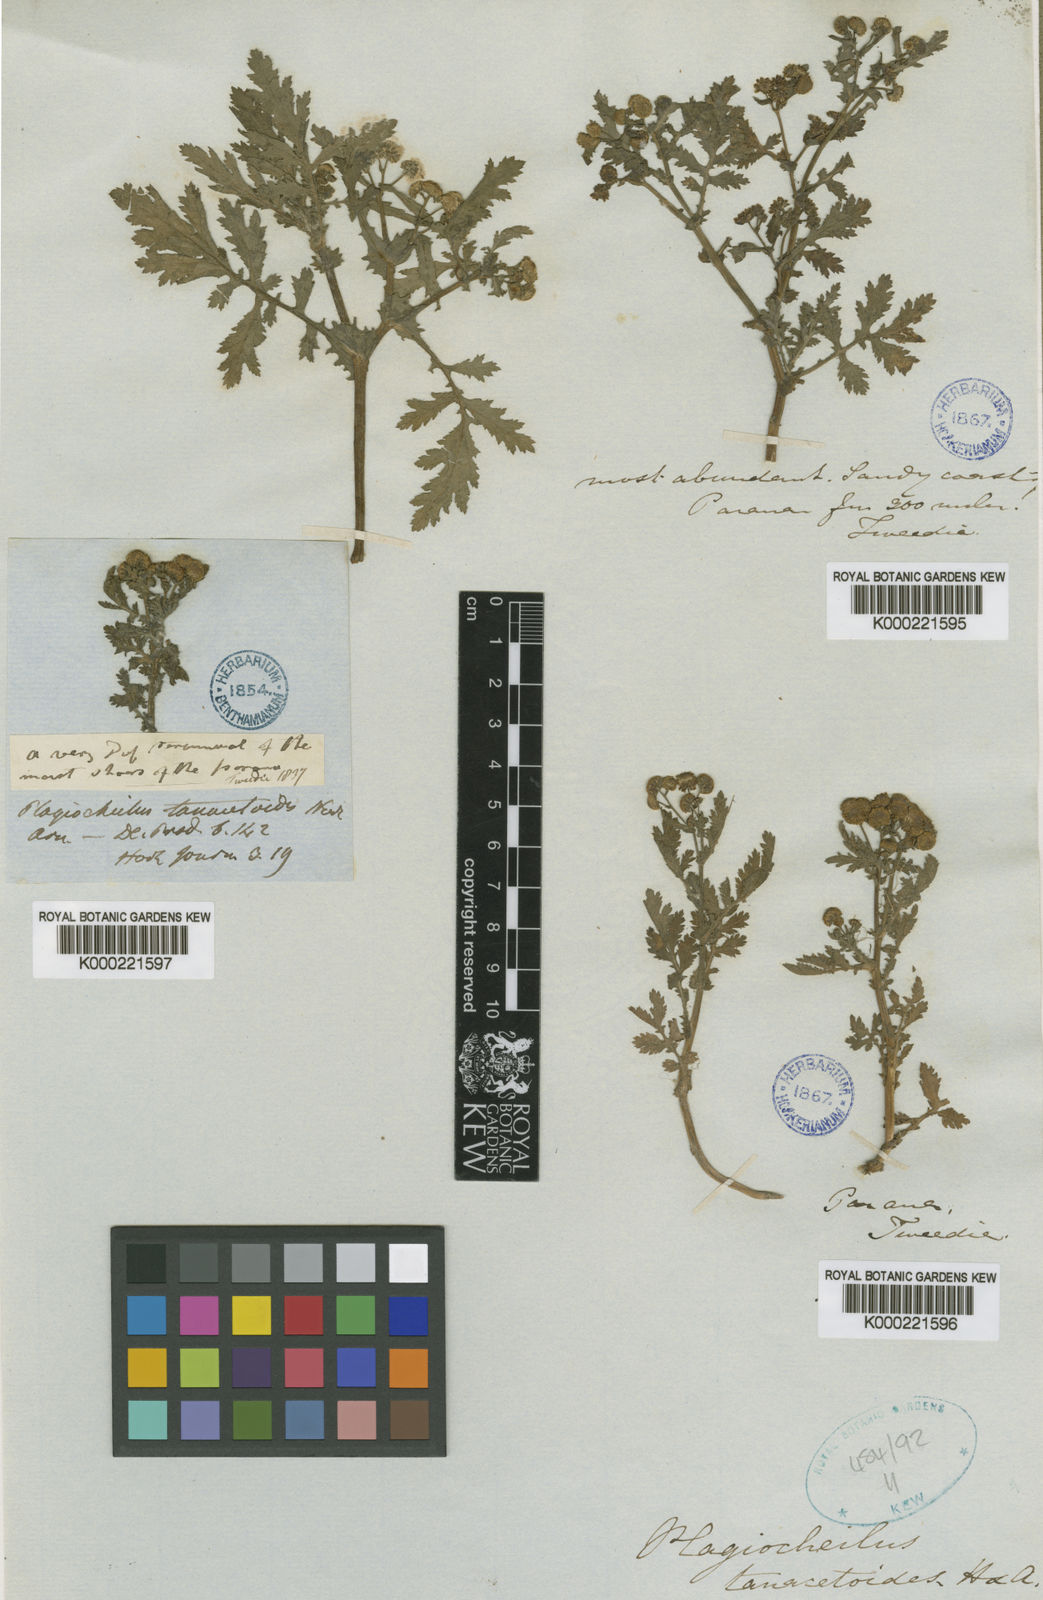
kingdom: Plantae
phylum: Tracheophyta
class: Magnoliopsida
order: Asterales
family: Asteraceae
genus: Plagiocheilus
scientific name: Plagiocheilus tanacetoides
